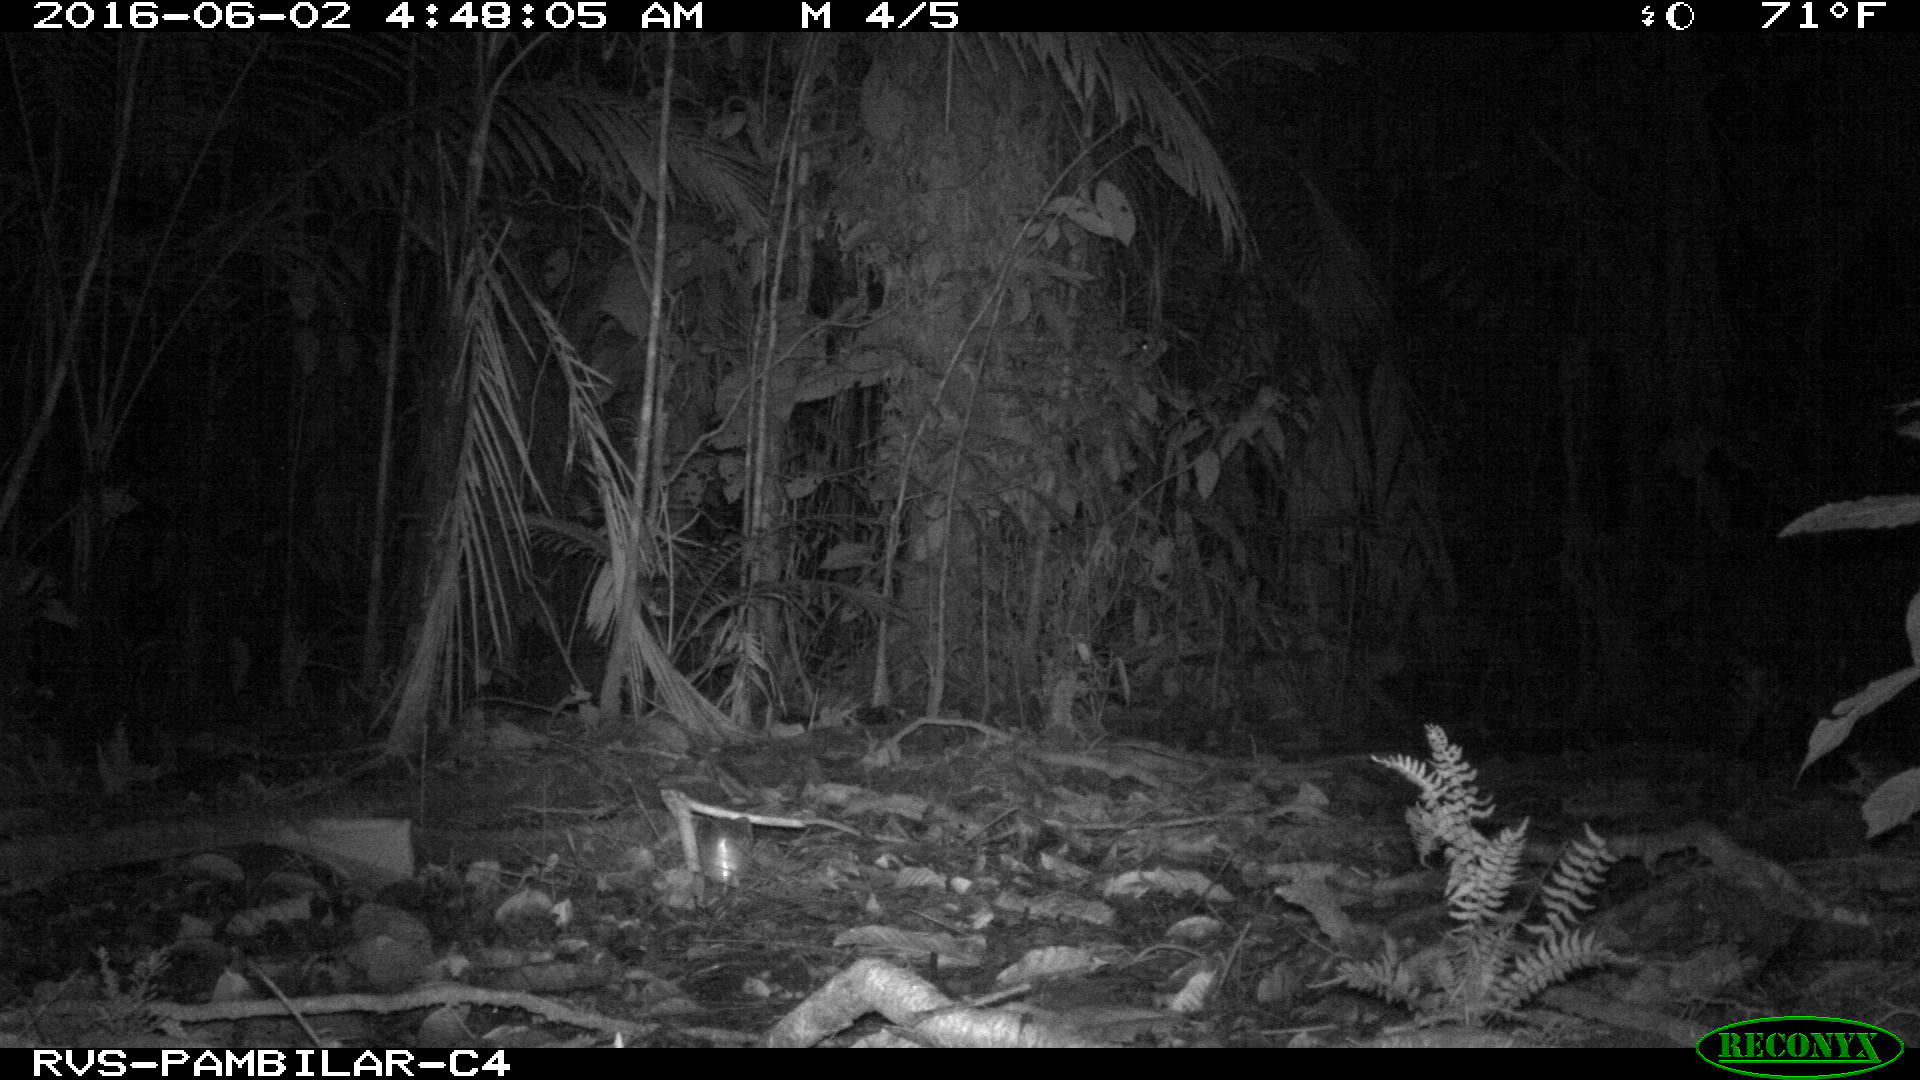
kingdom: Animalia
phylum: Chordata
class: Mammalia
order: Carnivora
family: Felidae
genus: Leopardus
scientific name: Leopardus pardalis
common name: Ocelot
